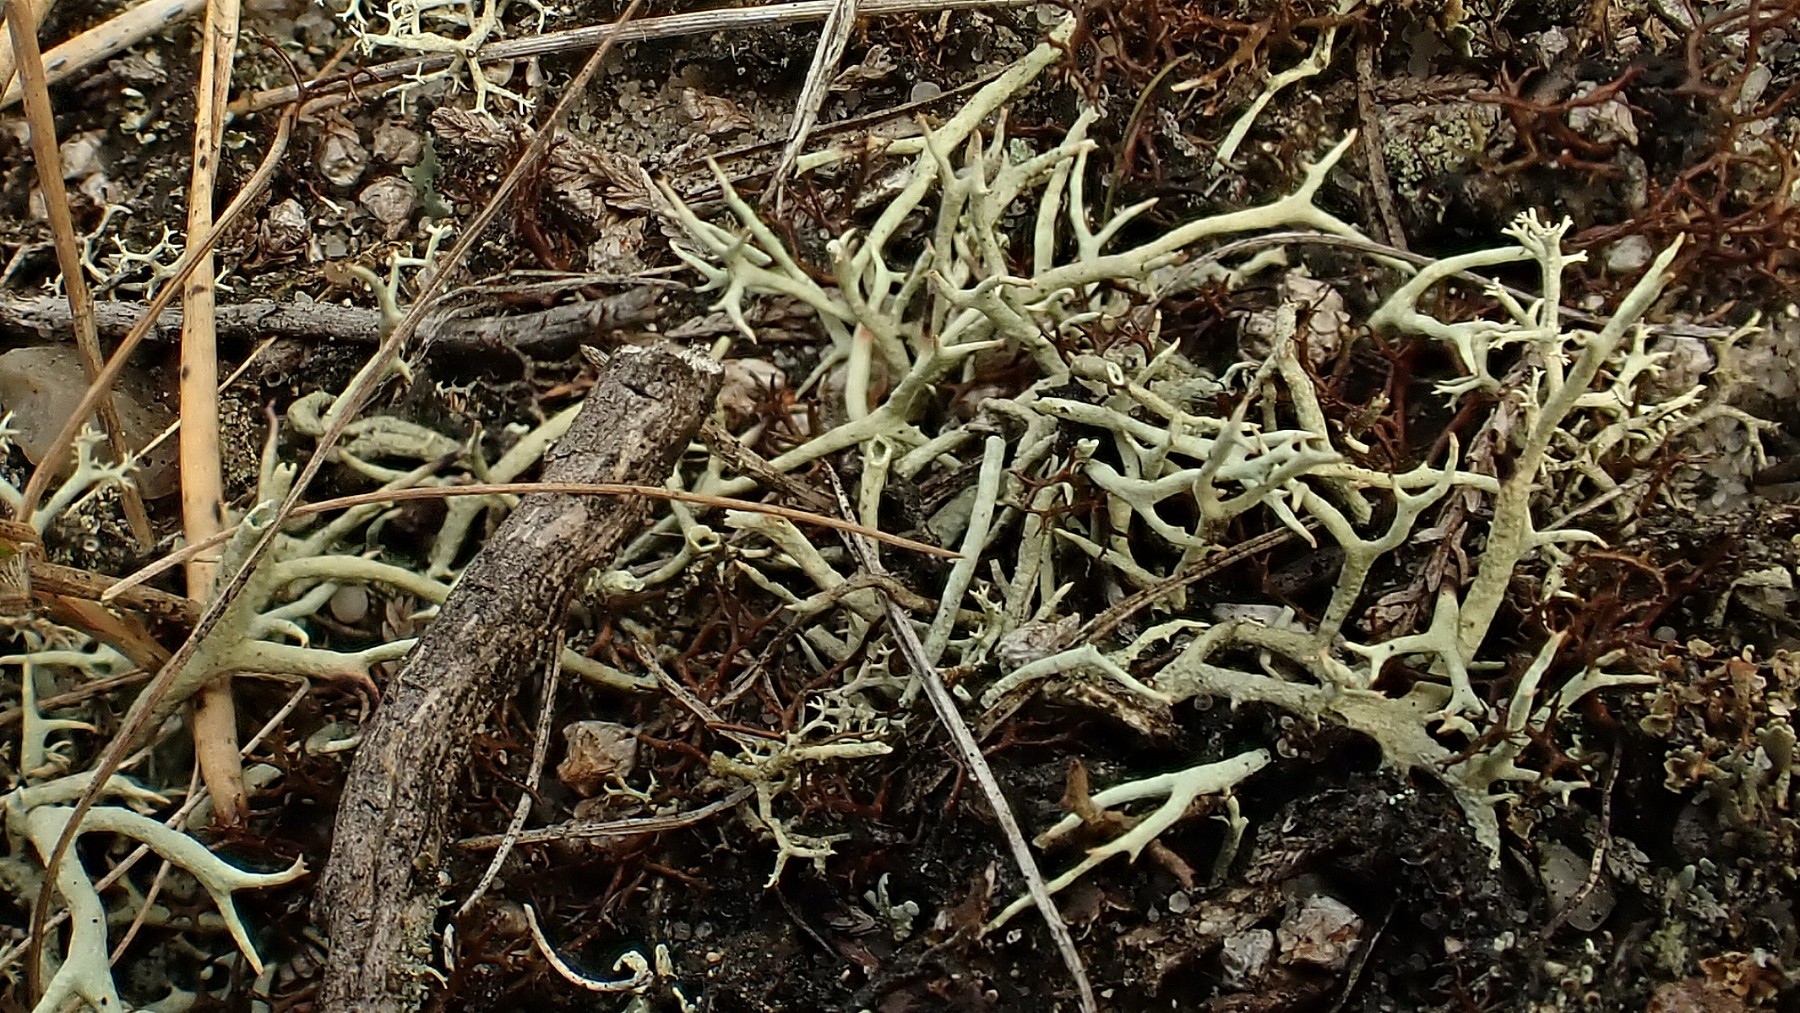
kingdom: Fungi
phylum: Ascomycota
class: Lecanoromycetes
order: Lecanorales
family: Cladoniaceae
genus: Cladonia
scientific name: Cladonia zopfii
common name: klit-bægerlav
